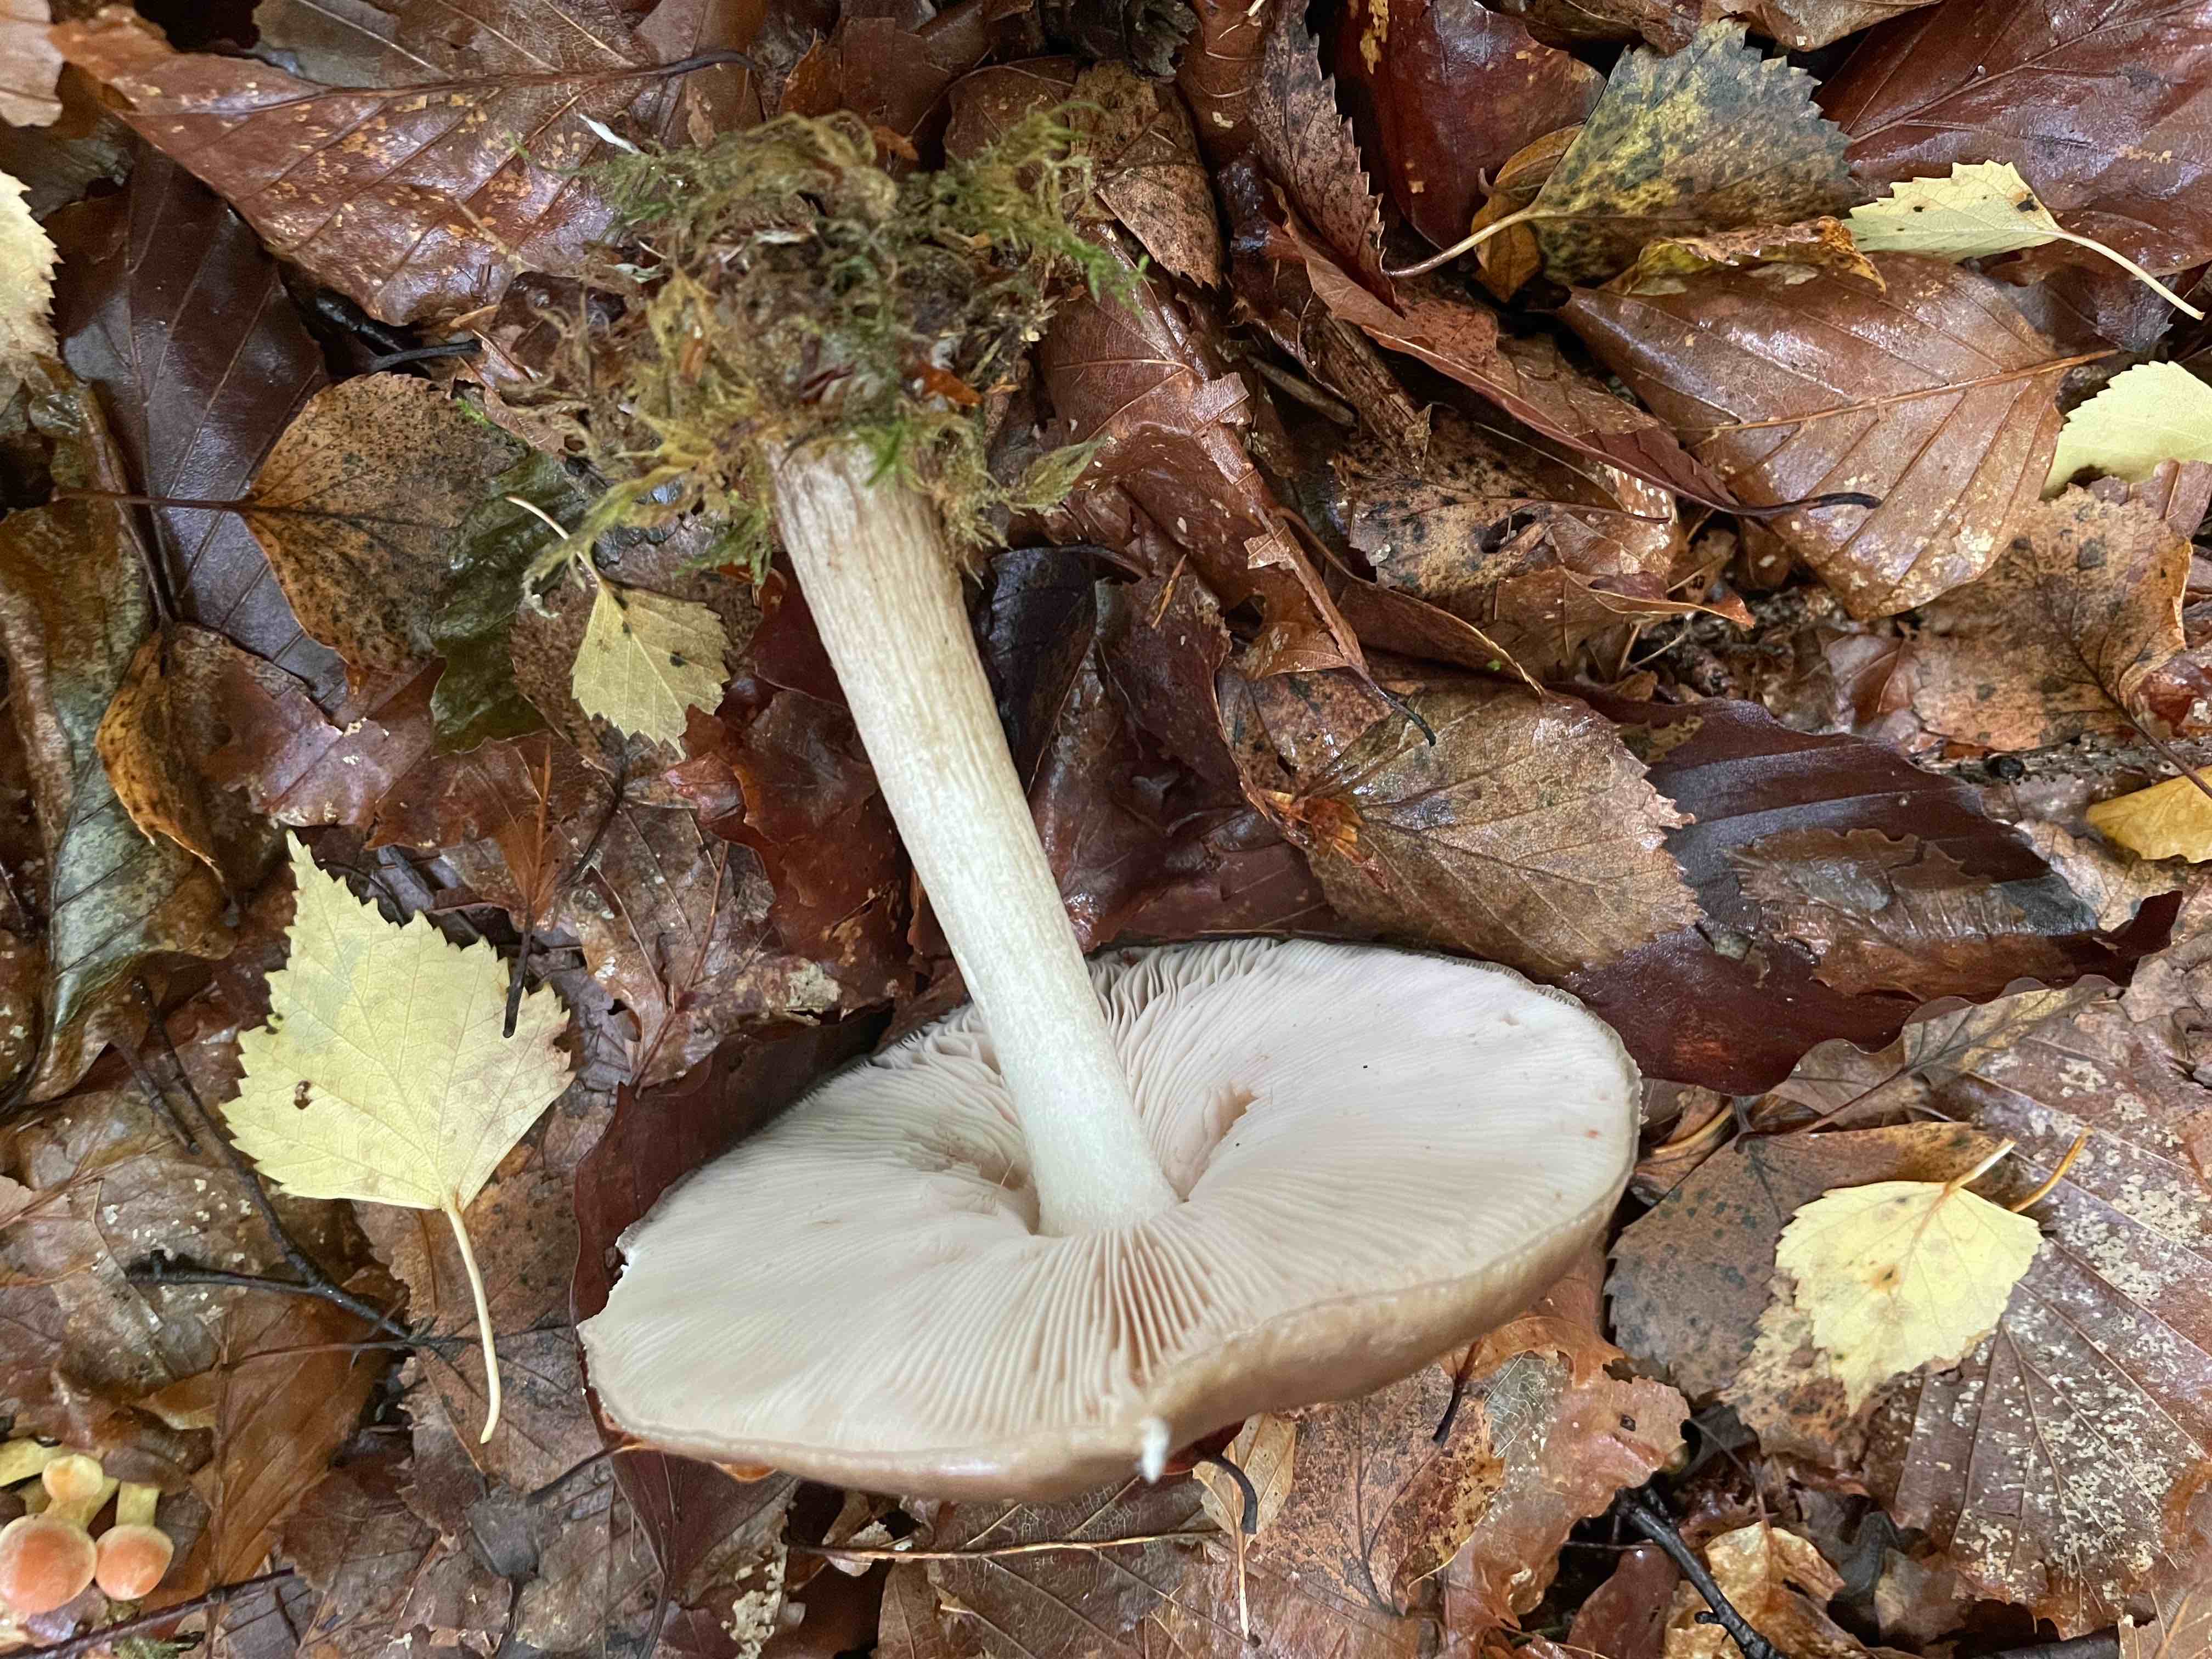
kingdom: Fungi
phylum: Basidiomycota
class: Agaricomycetes
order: Agaricales
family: Pluteaceae
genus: Pluteus
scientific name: Pluteus cervinus
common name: sodfarvet skærmhat
